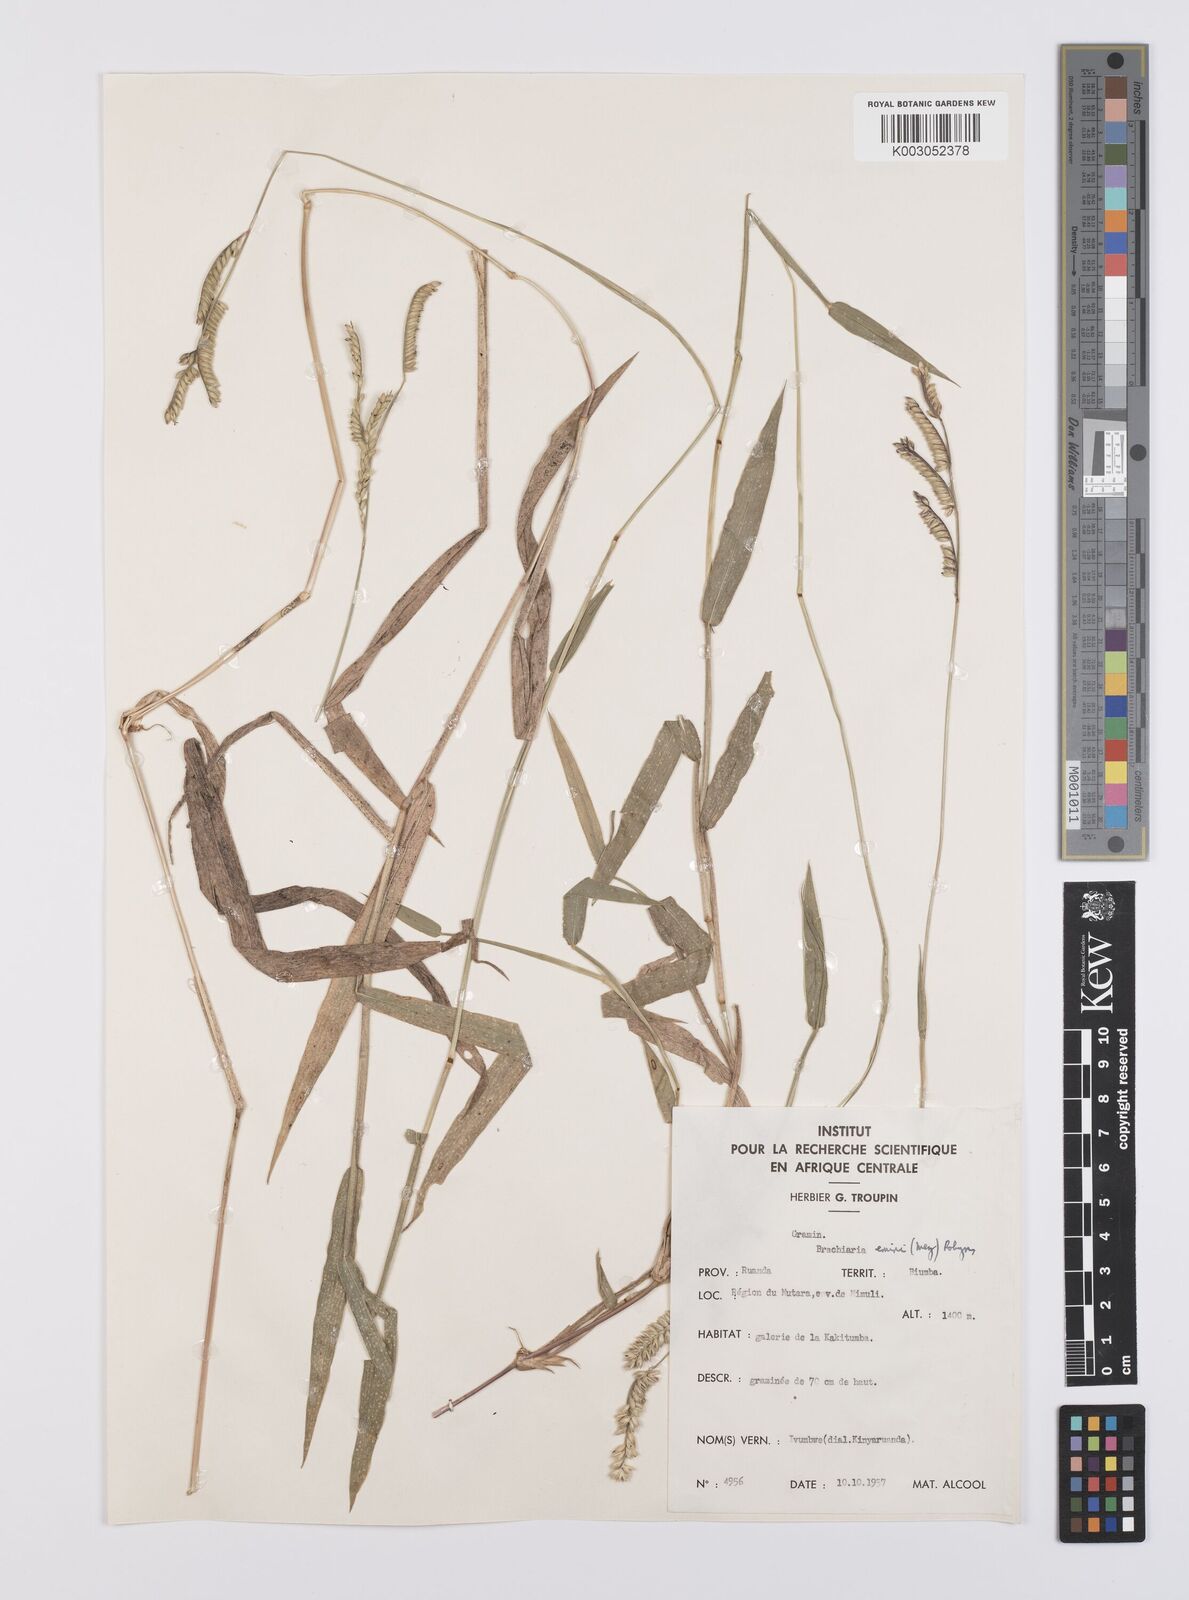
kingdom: Plantae
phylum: Tracheophyta
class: Liliopsida
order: Poales
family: Poaceae
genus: Urochloa
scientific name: Urochloa eminii
